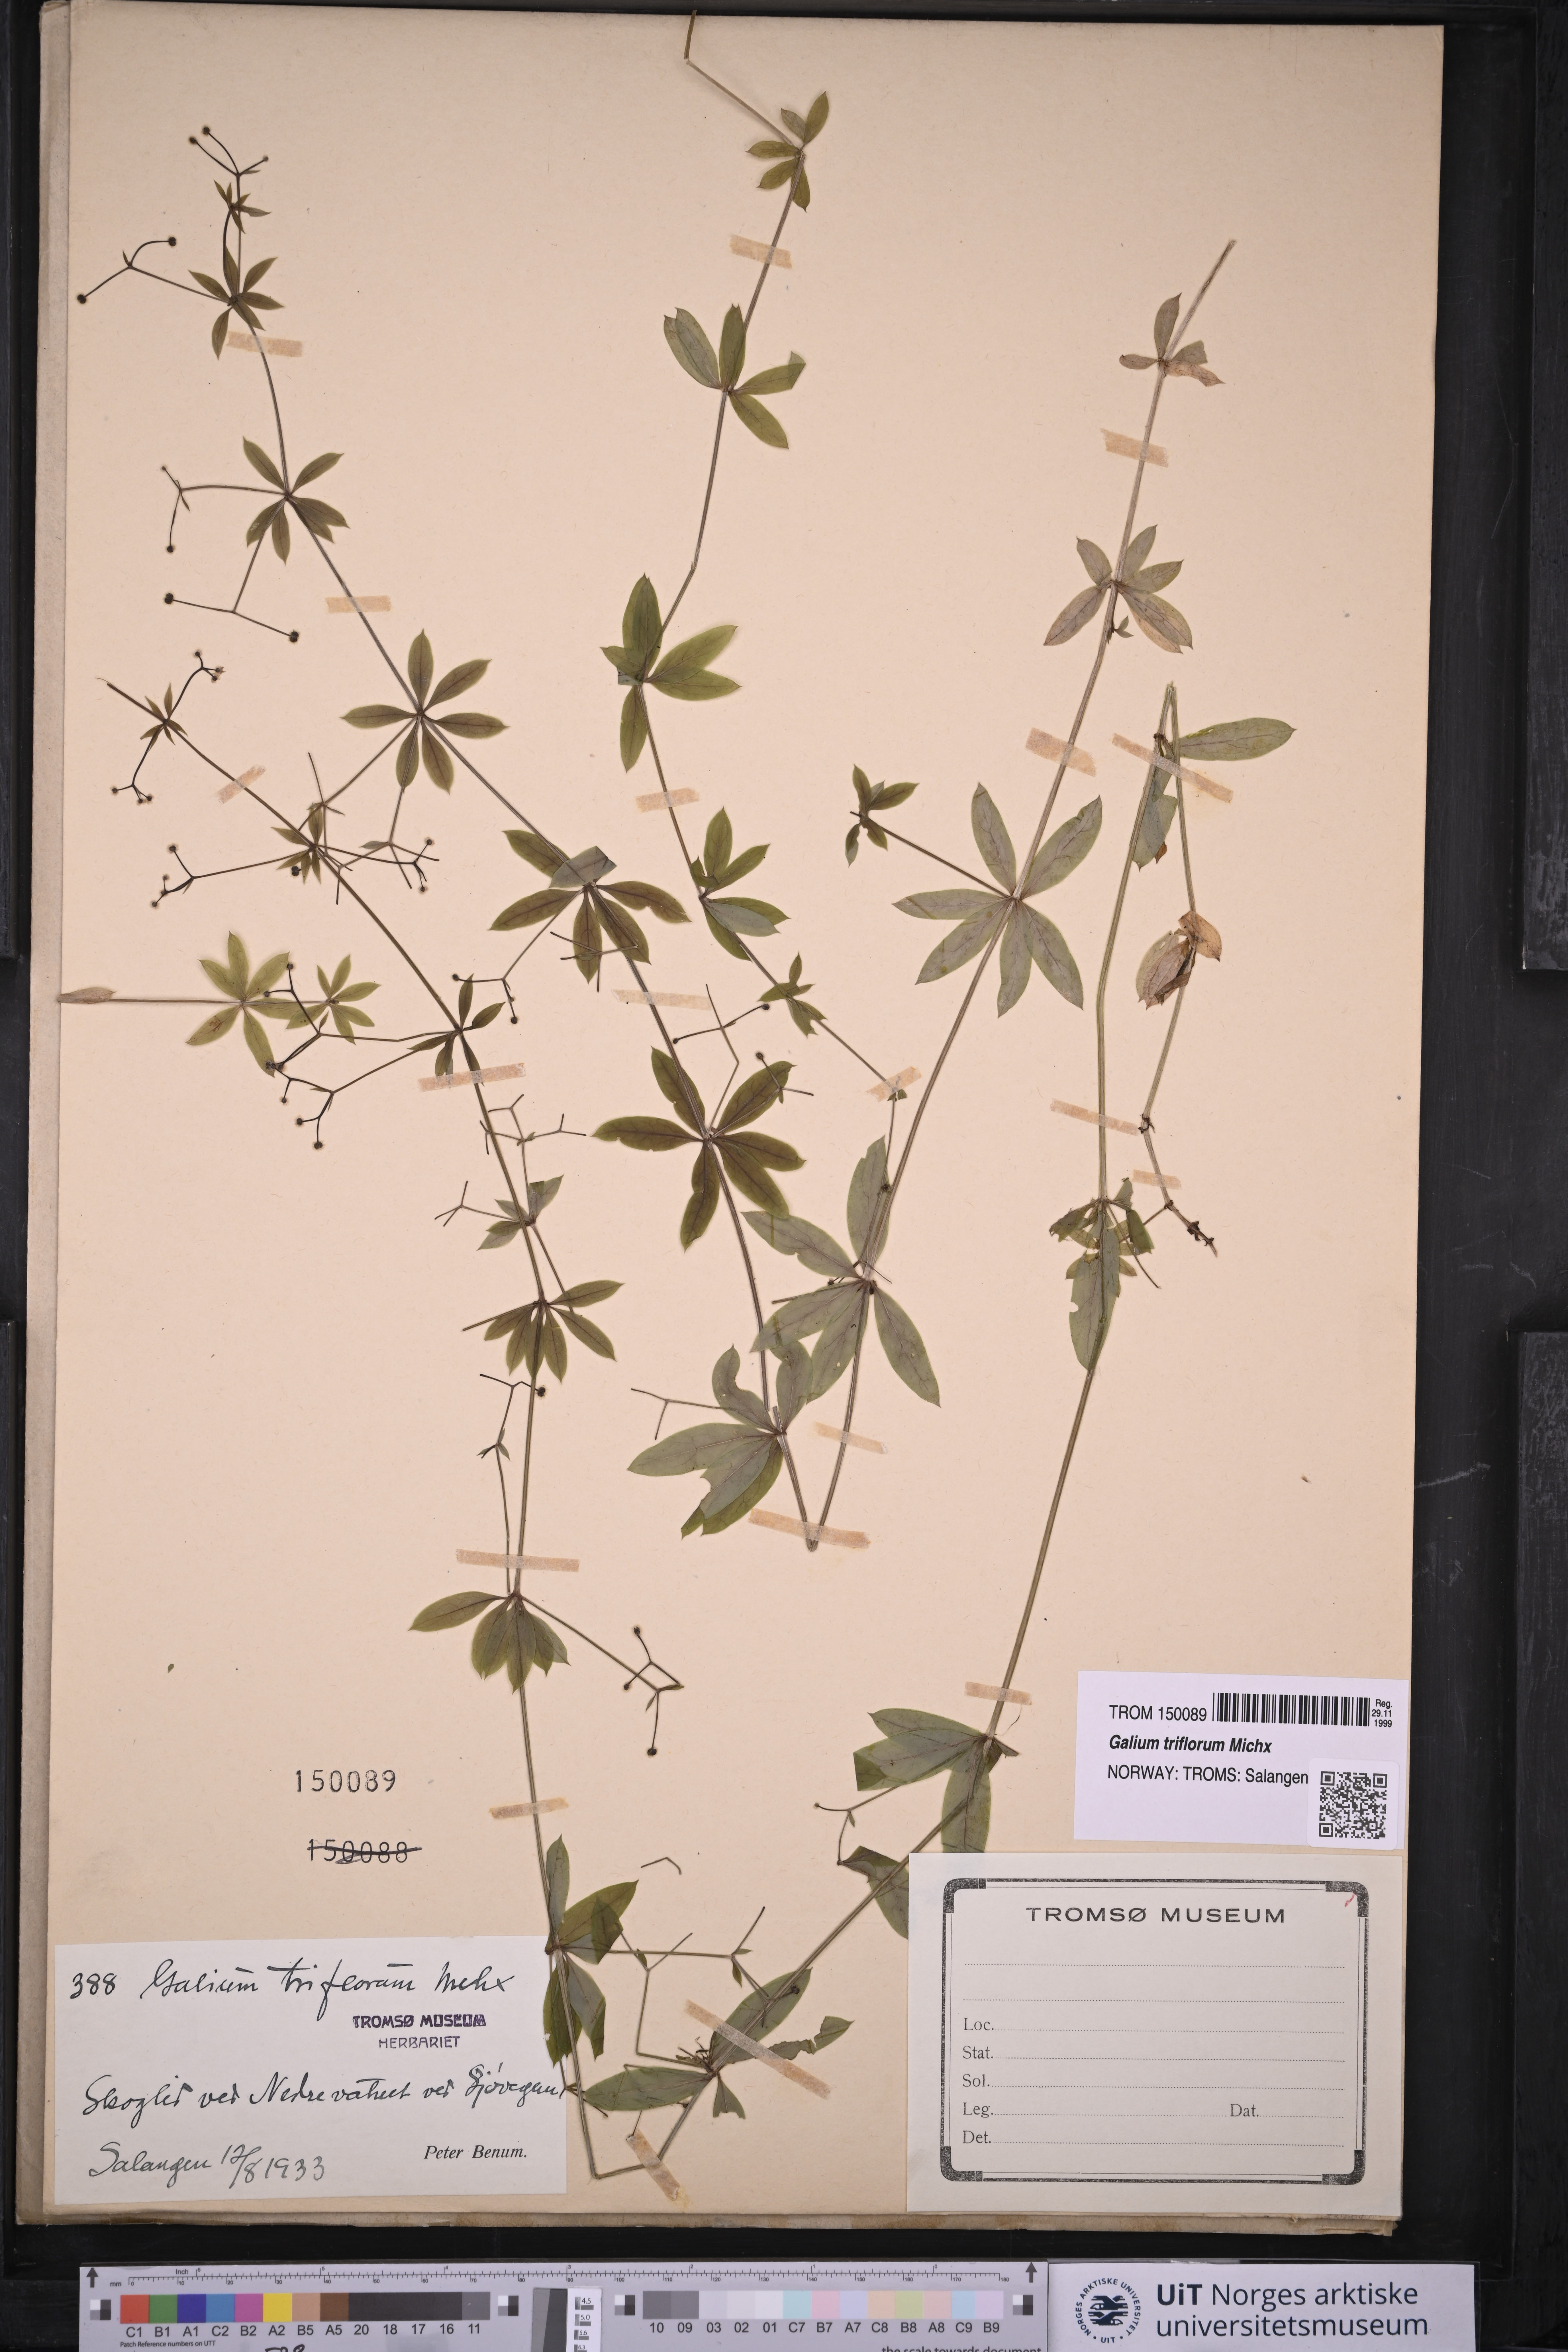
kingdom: Plantae
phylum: Tracheophyta
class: Magnoliopsida
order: Gentianales
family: Rubiaceae
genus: Galium
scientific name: Galium triflorum
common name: Fragrant bedstraw
